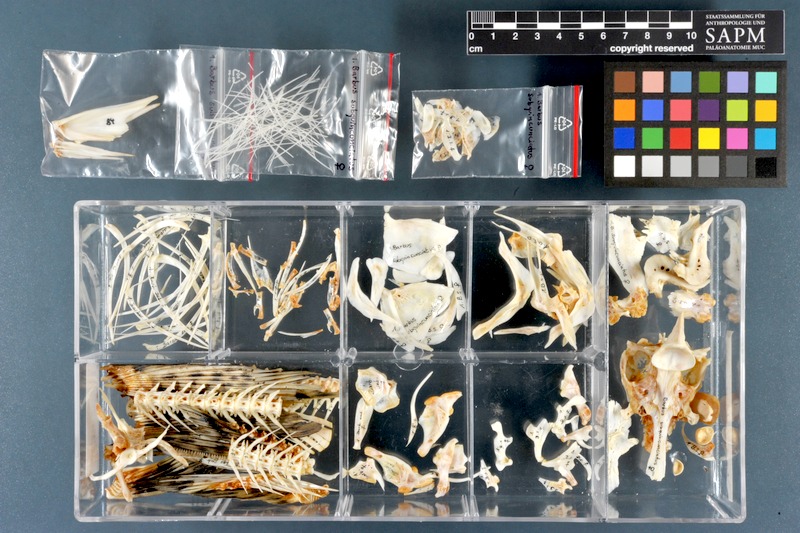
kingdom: Animalia
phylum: Chordata
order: Cypriniformes
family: Cyprinidae
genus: Luciobarbus
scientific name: Luciobarbus subquincunciatus
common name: Leopard barbel
